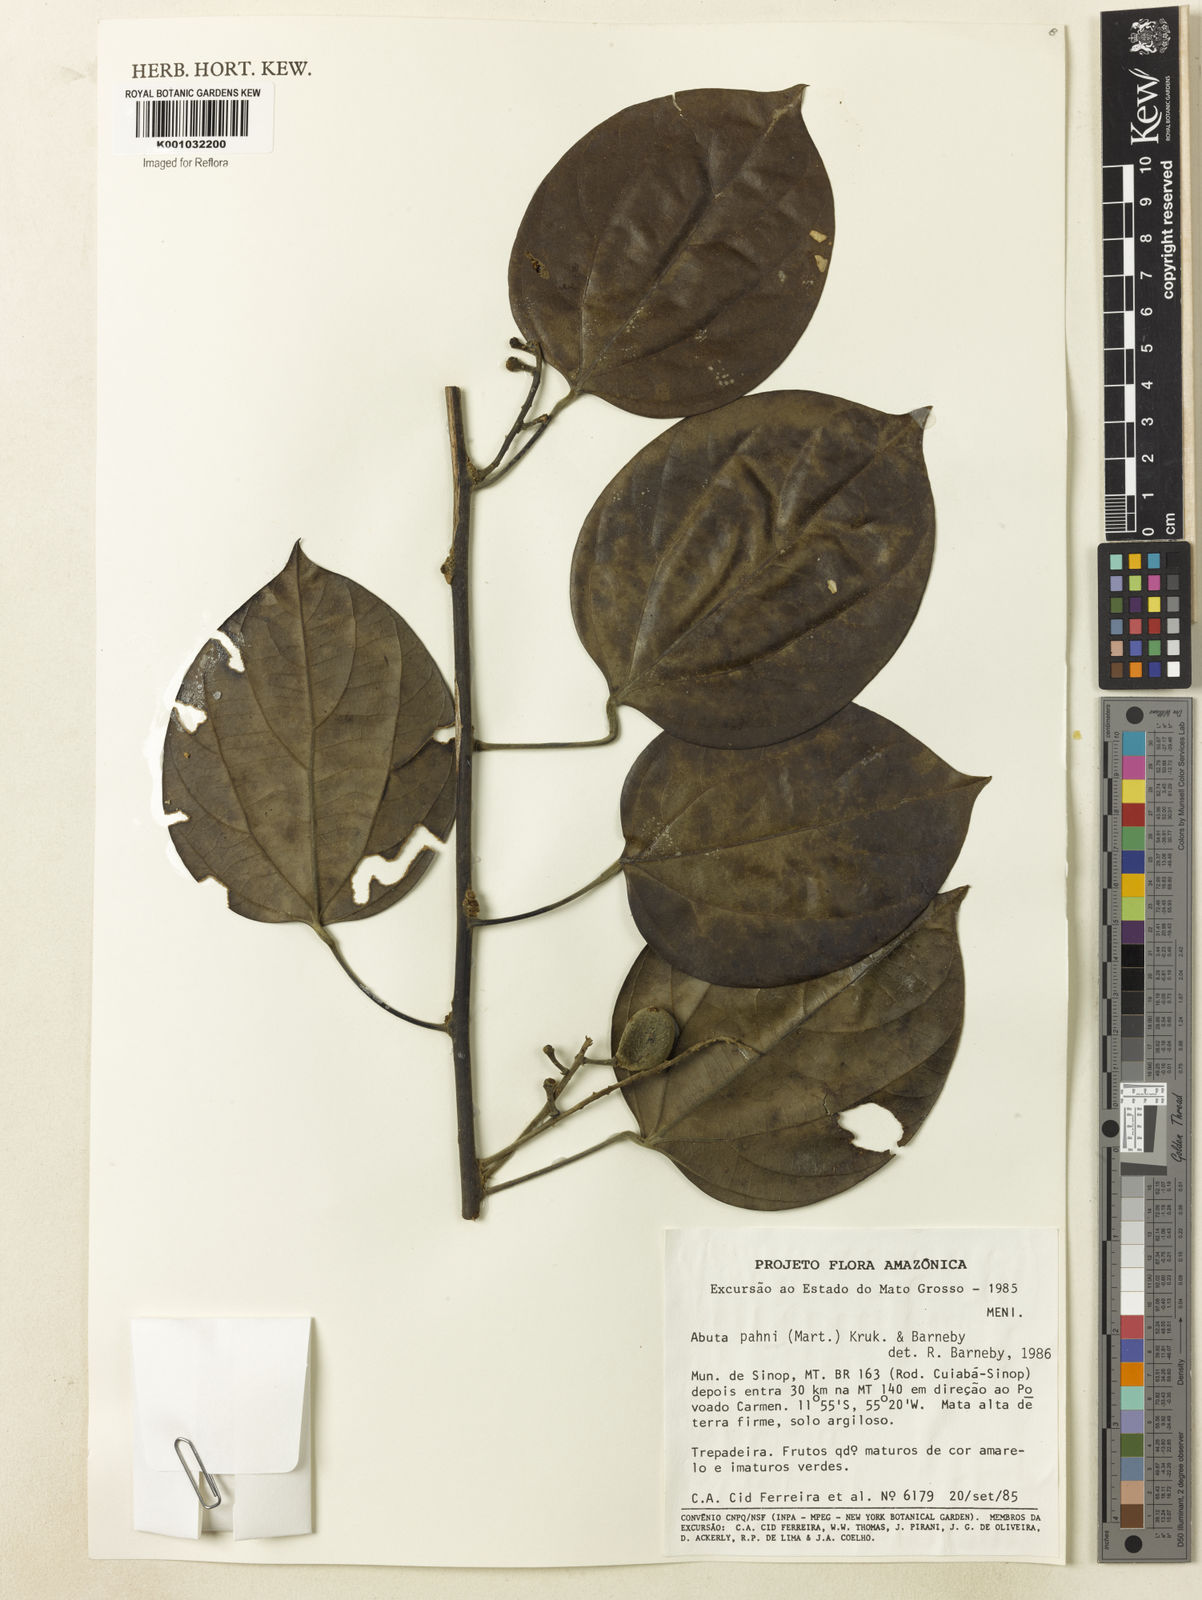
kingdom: Plantae
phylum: Tracheophyta
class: Magnoliopsida
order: Ranunculales
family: Menispermaceae
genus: Abuta
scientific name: Abuta pahni
